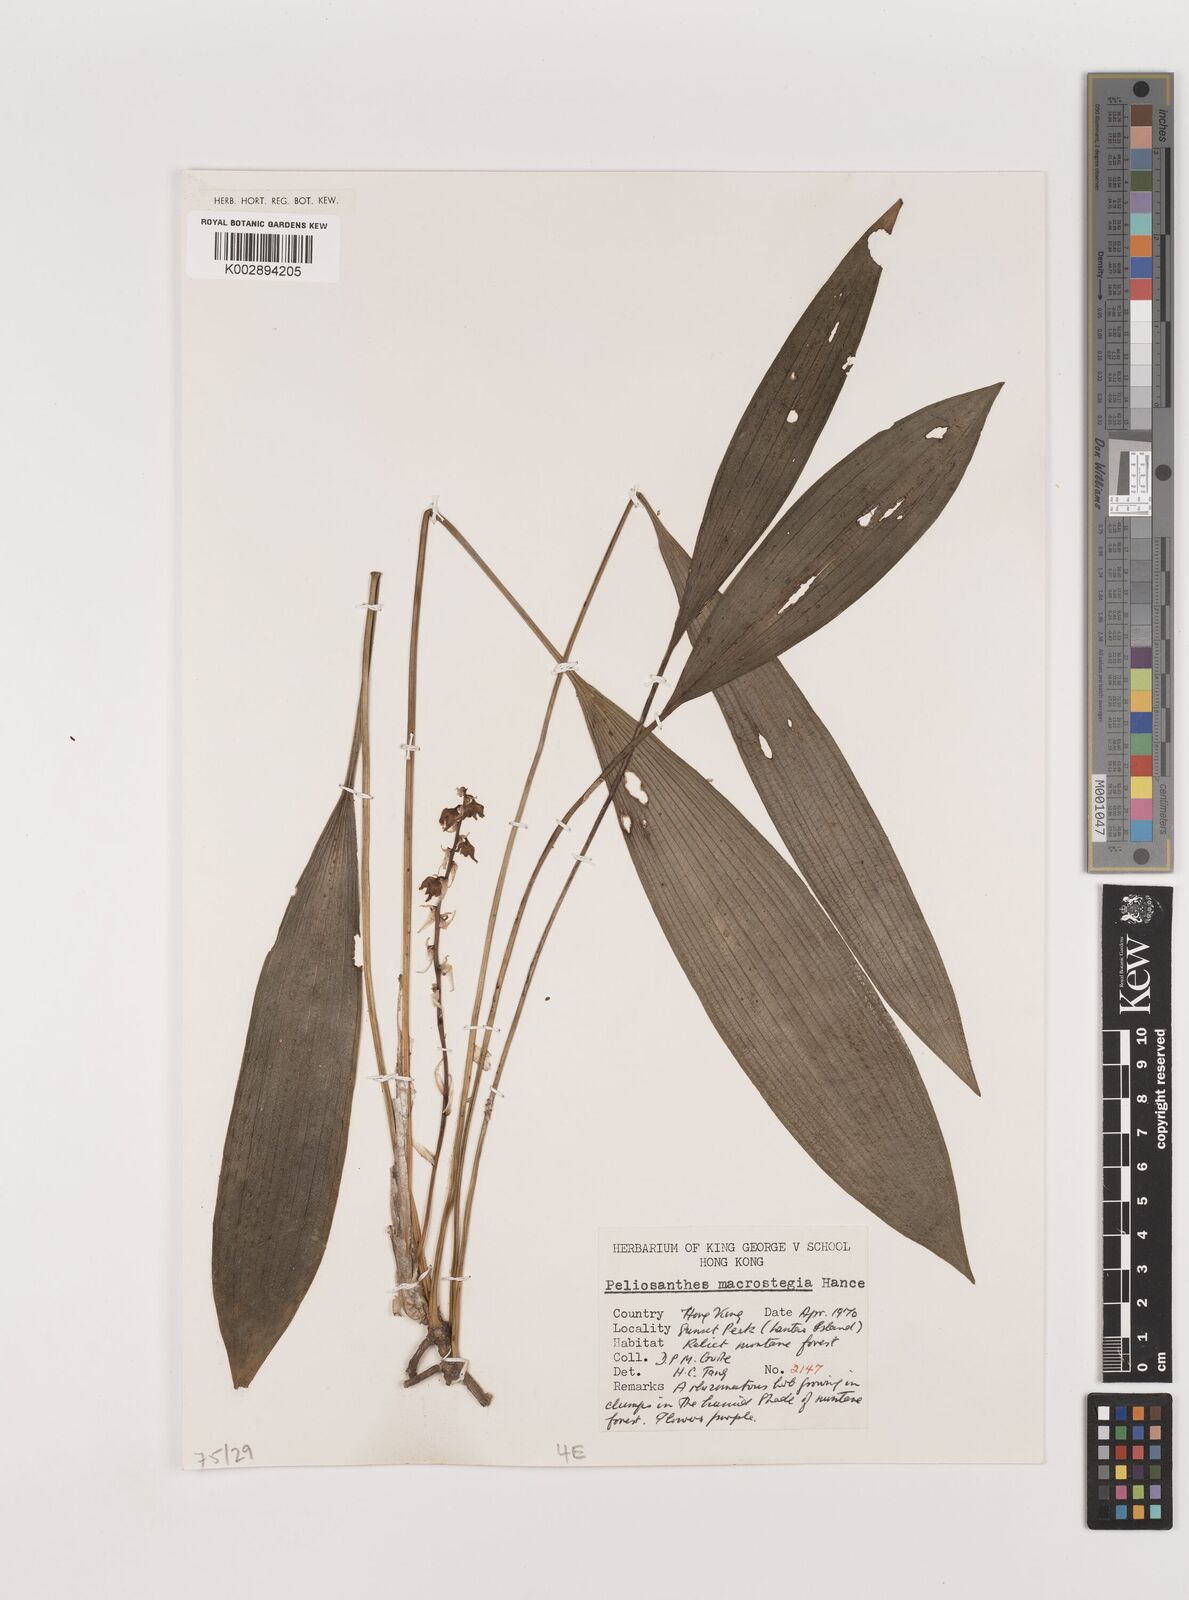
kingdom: Plantae
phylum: Tracheophyta
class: Liliopsida
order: Asparagales
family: Asparagaceae
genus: Peliosanthes
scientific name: Peliosanthes teta
